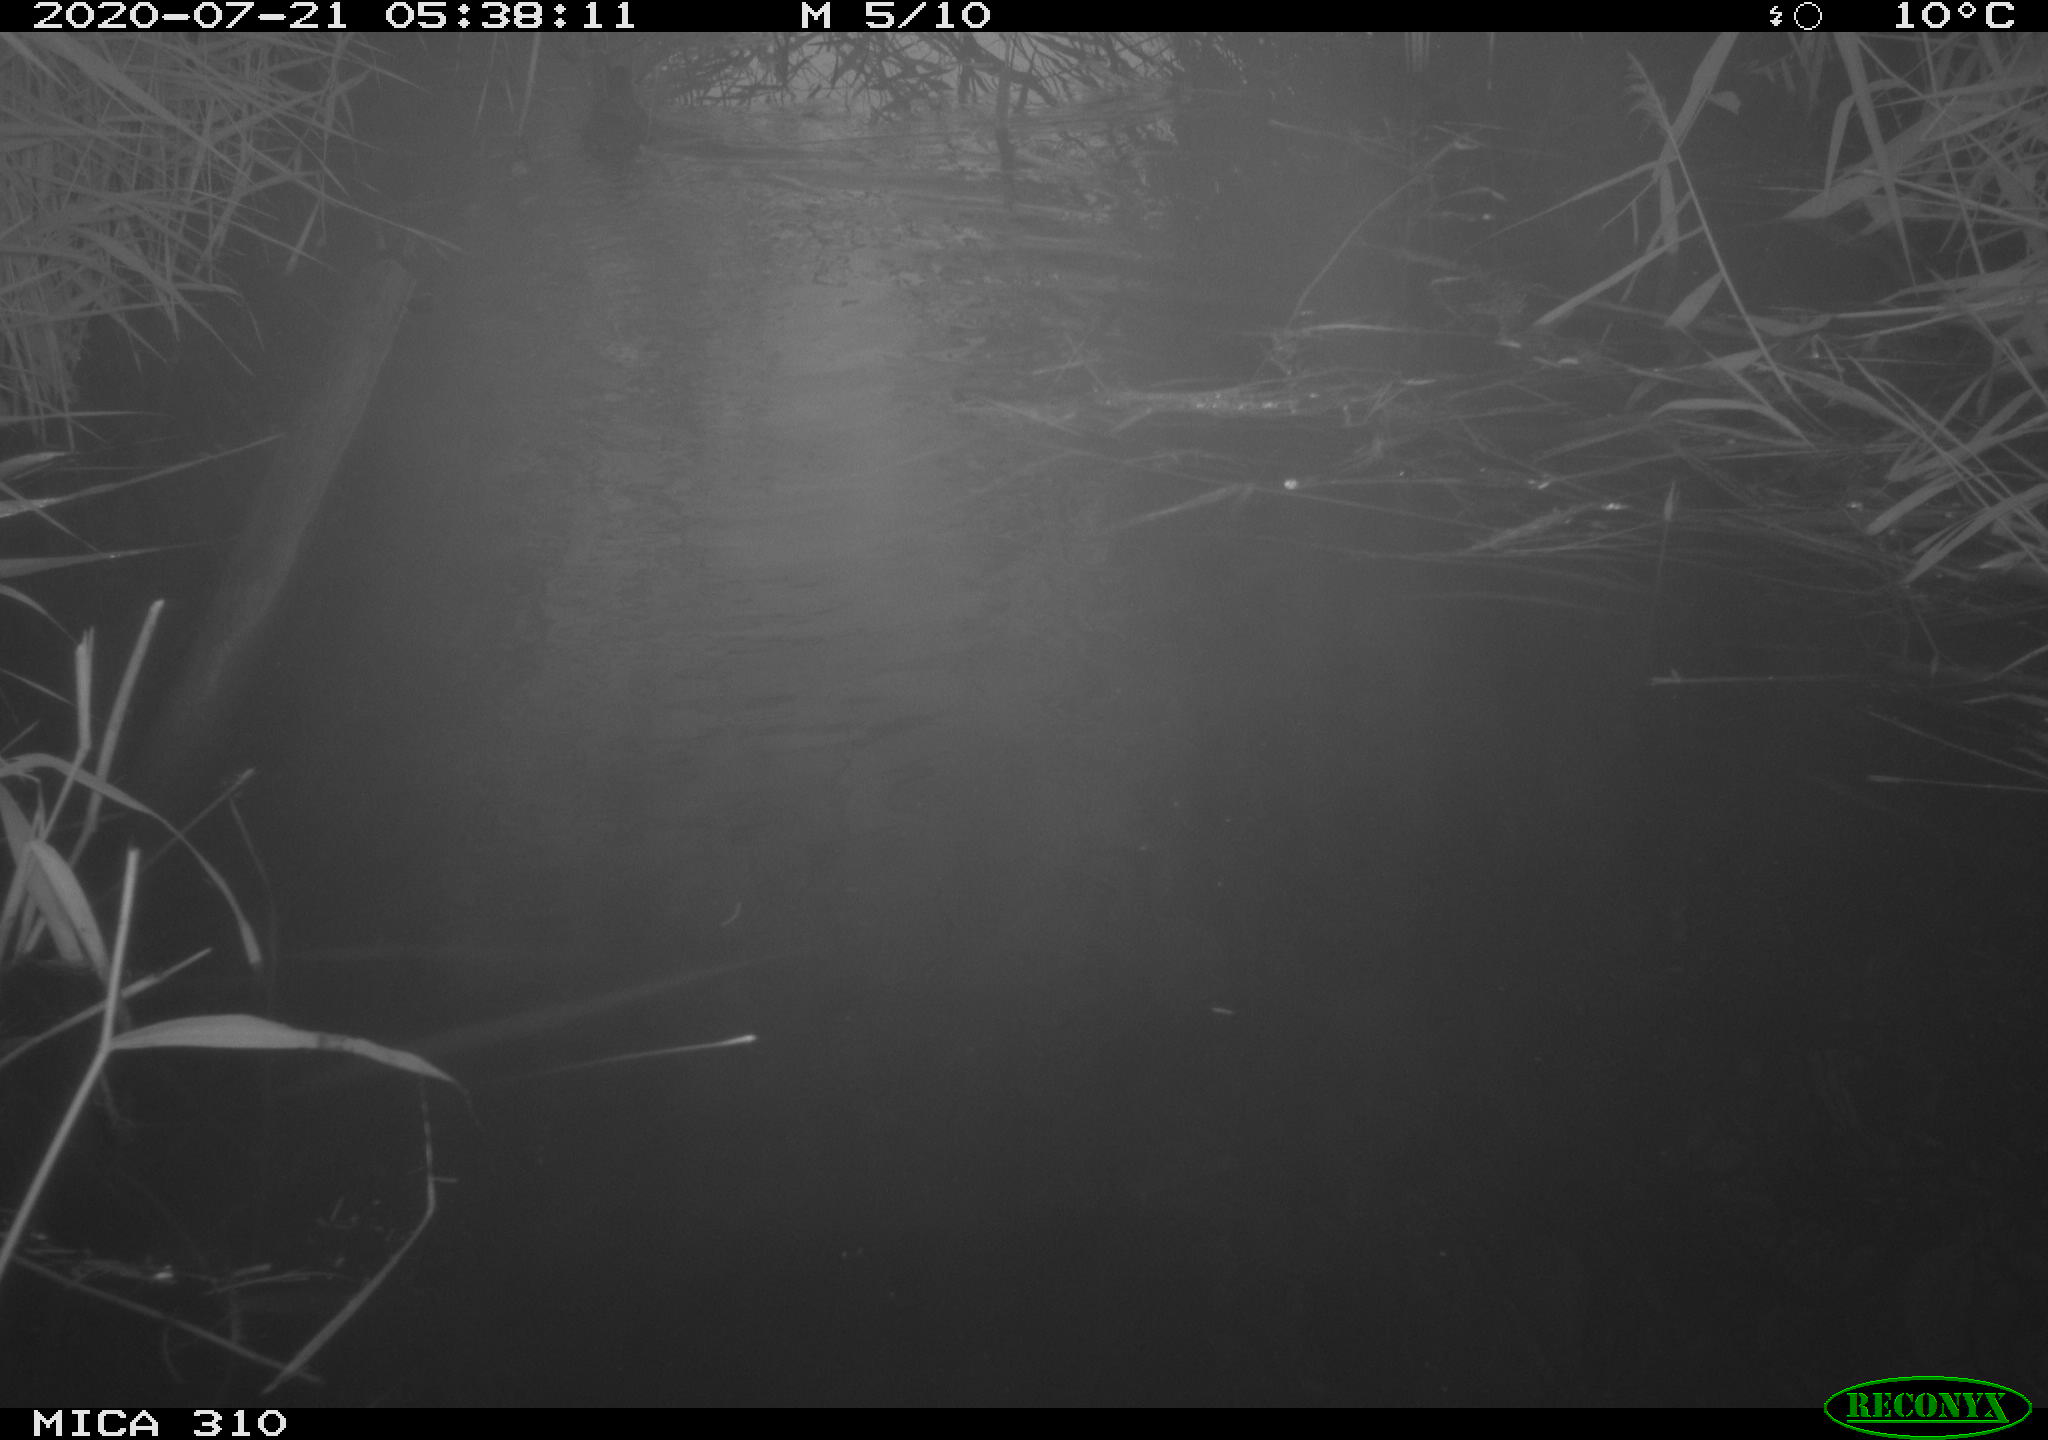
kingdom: Animalia
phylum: Chordata
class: Aves
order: Gruiformes
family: Rallidae
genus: Gallinula
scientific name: Gallinula chloropus
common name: Common moorhen
